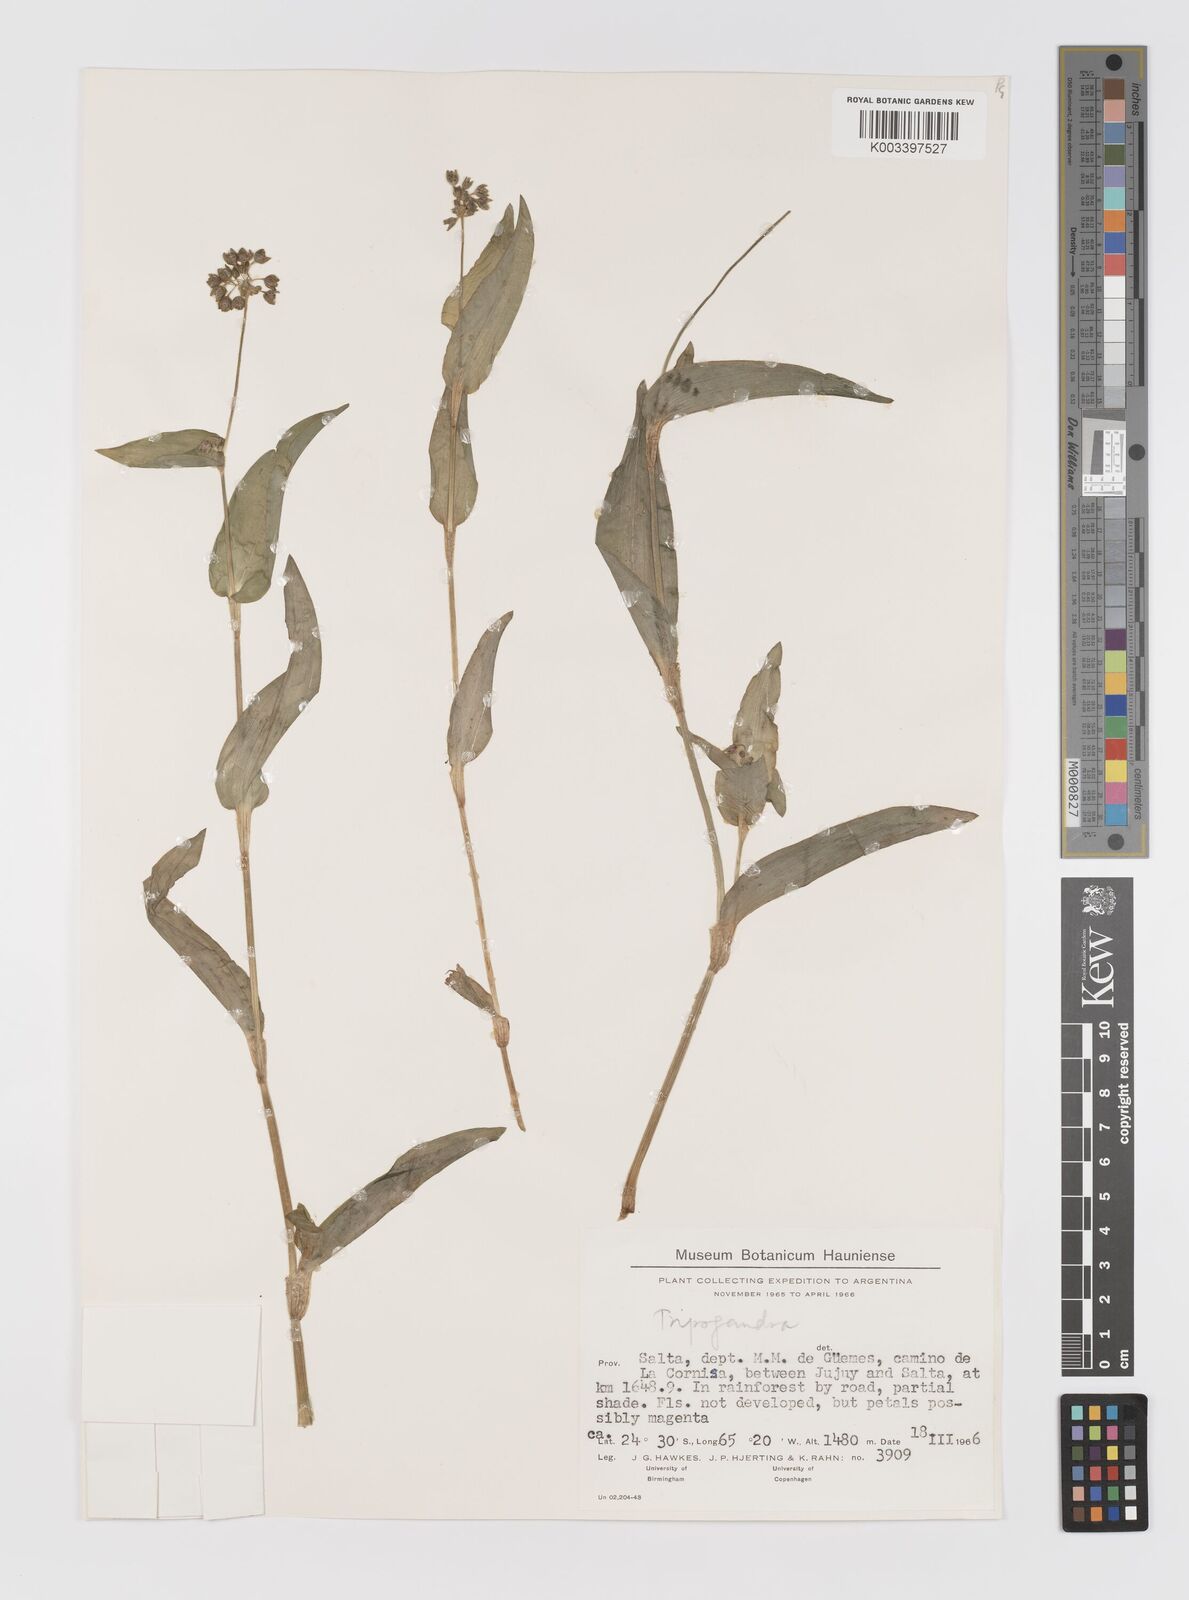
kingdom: Plantae
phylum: Tracheophyta
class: Liliopsida
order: Commelinales
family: Commelinaceae
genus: Callisia
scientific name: Callisia purpurascens
